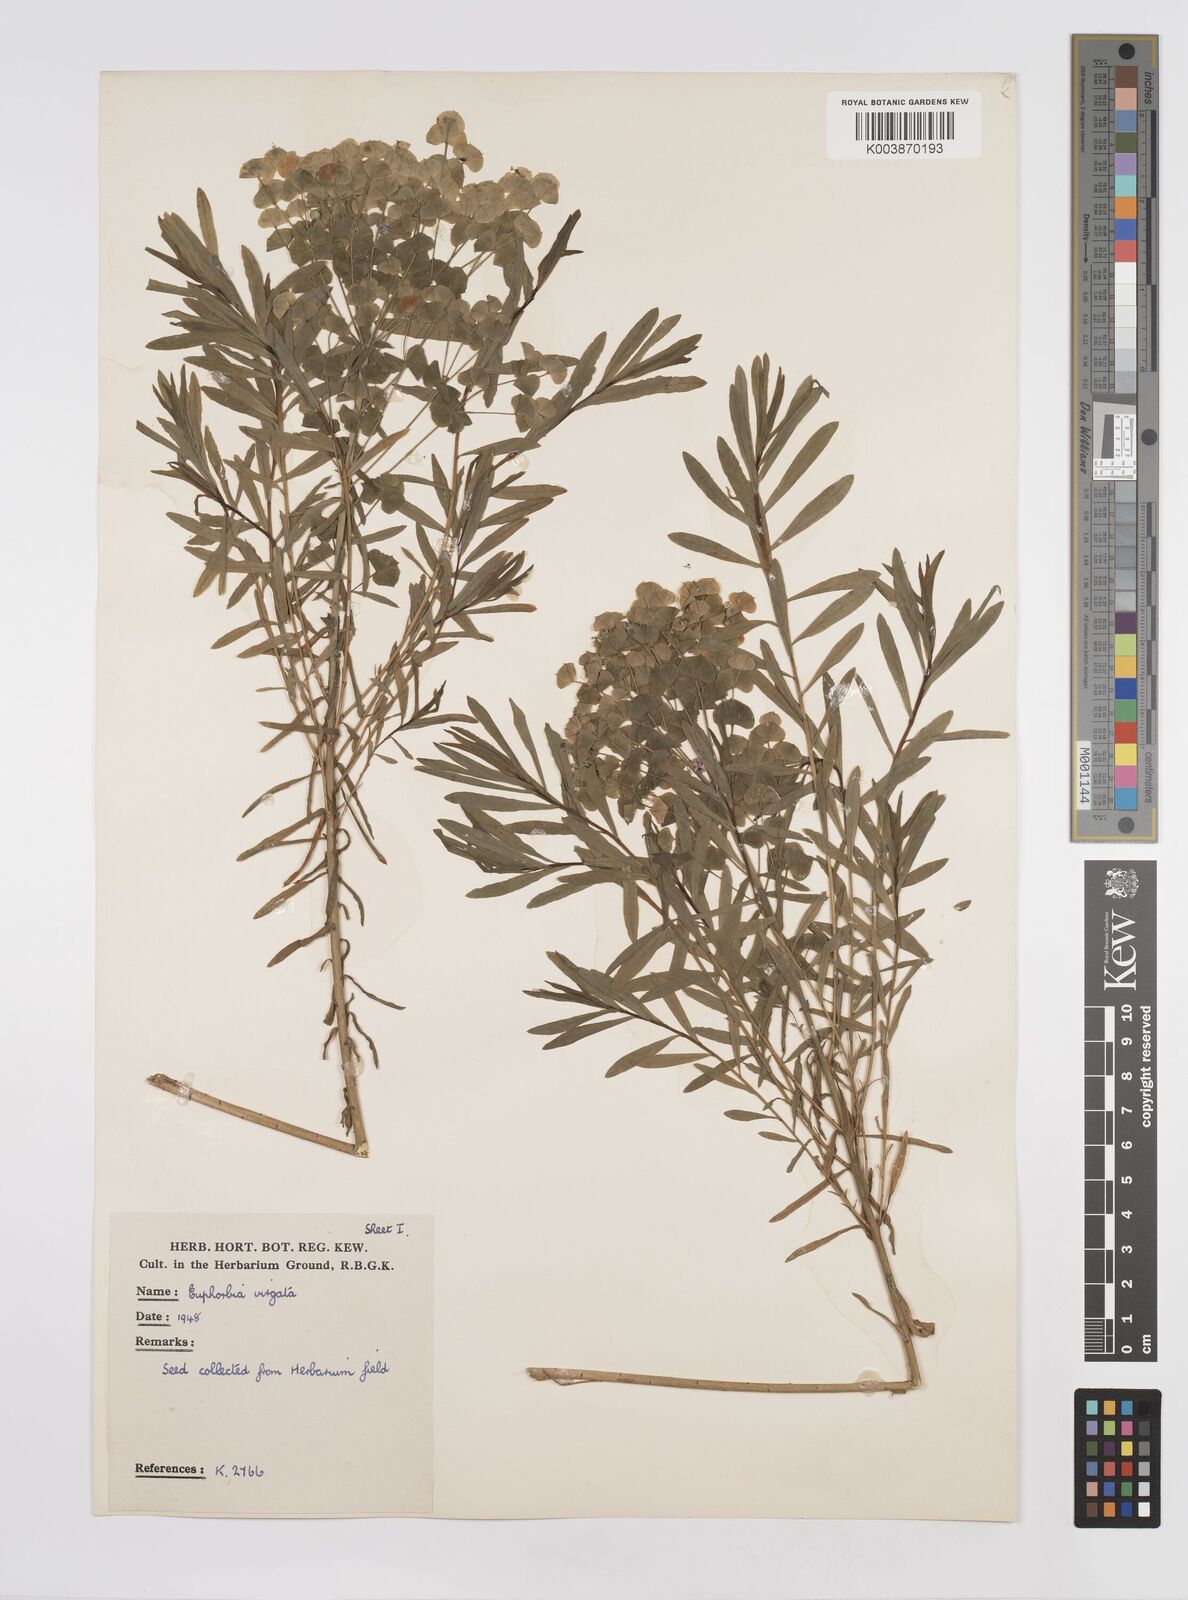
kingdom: Plantae
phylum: Tracheophyta
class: Magnoliopsida
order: Malpighiales
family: Euphorbiaceae
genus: Euphorbia
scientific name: Euphorbia virgata
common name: Leafy spurge
